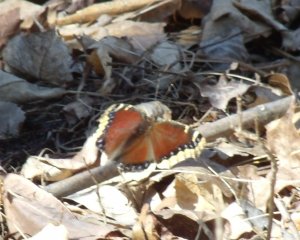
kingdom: Animalia
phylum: Arthropoda
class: Insecta
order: Lepidoptera
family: Nymphalidae
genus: Nymphalis
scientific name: Nymphalis antiopa
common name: Mourning Cloak
